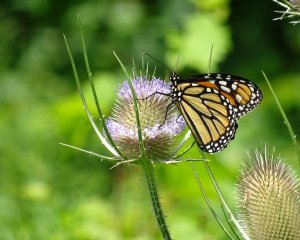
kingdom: Animalia
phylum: Arthropoda
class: Insecta
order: Lepidoptera
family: Nymphalidae
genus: Danaus
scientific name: Danaus plexippus
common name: Monarch
